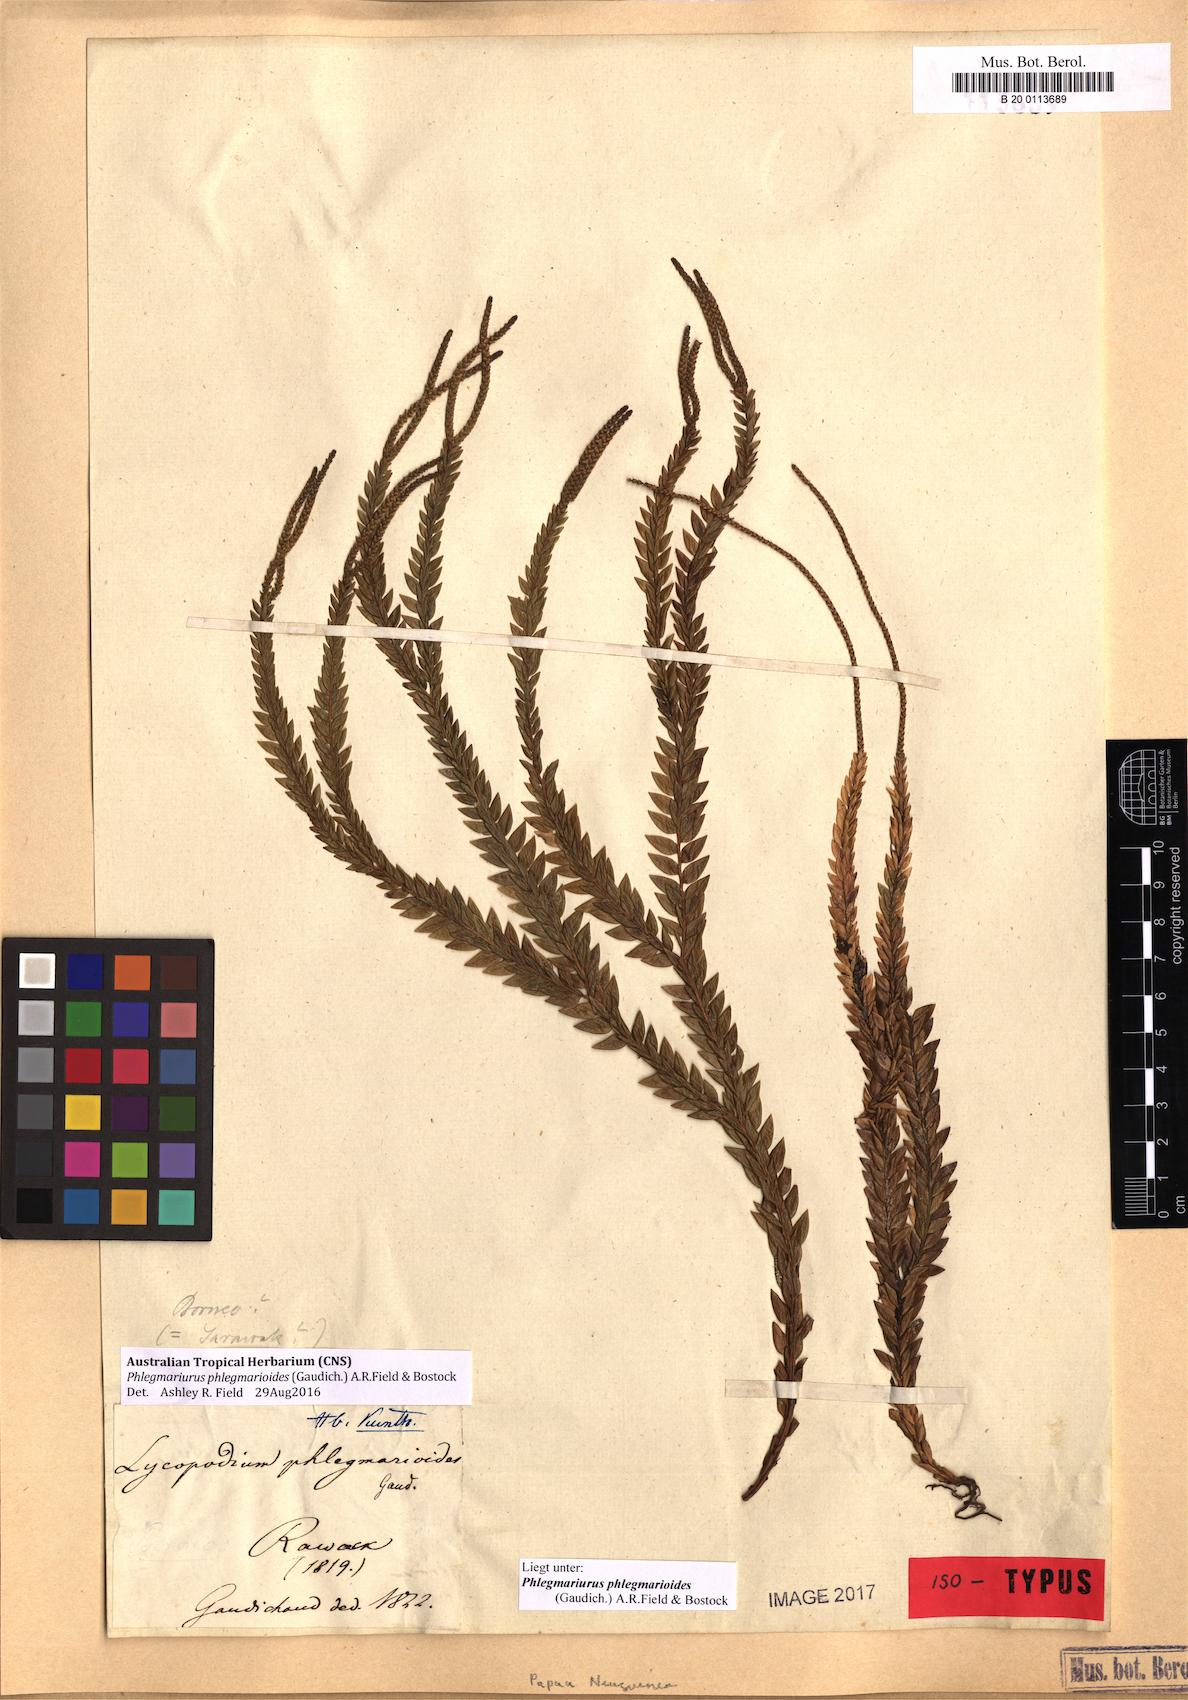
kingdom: Plantae
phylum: Tracheophyta
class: Lycopodiopsida
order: Lycopodiales
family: Lycopodiaceae
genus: Phlegmariurus
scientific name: Phlegmariurus phlegmarioides
